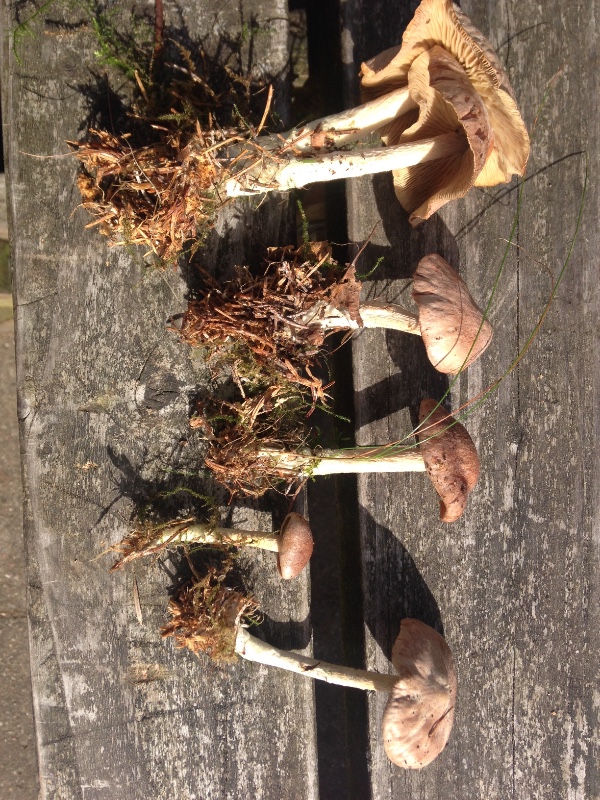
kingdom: Fungi
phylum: Basidiomycota
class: Agaricomycetes
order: Agaricales
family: Omphalotaceae
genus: Collybiopsis
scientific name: Collybiopsis peronata
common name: bestøvlet fladhat
